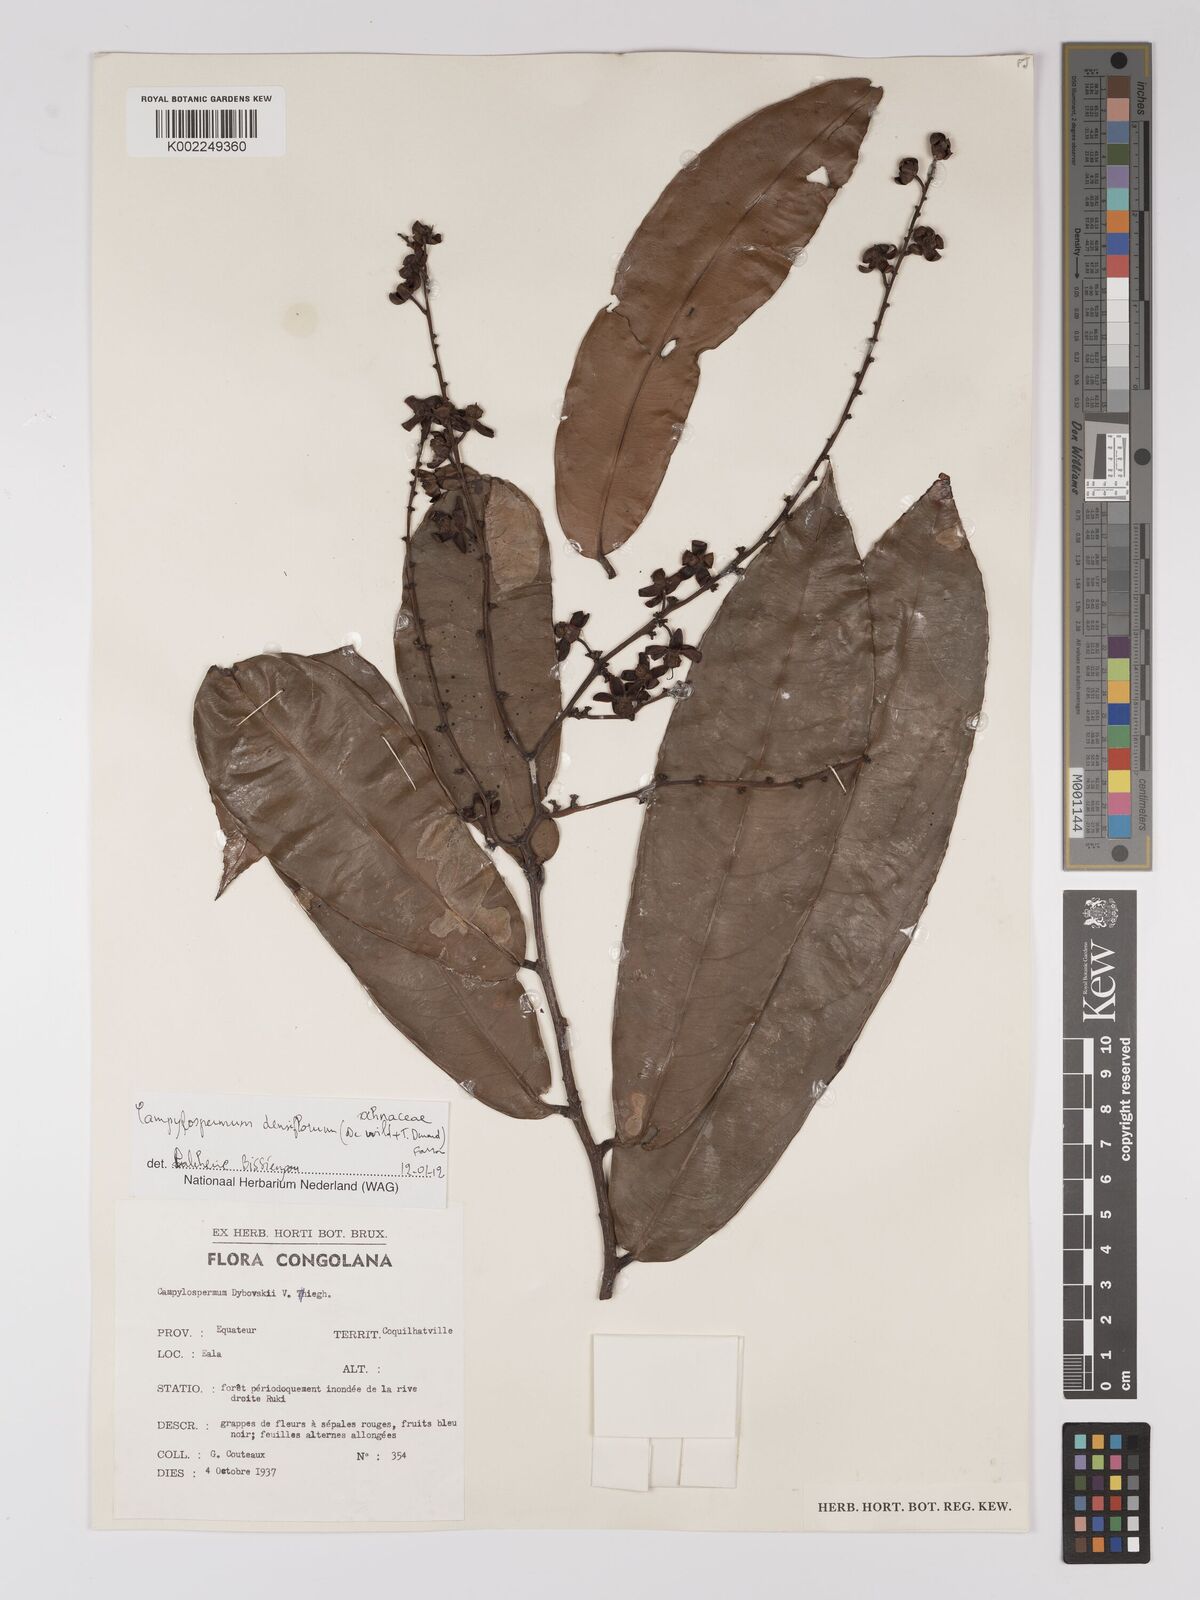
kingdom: Plantae
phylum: Tracheophyta
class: Magnoliopsida
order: Malpighiales
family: Ochnaceae
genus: Gomphia
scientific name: Gomphia densiflora
